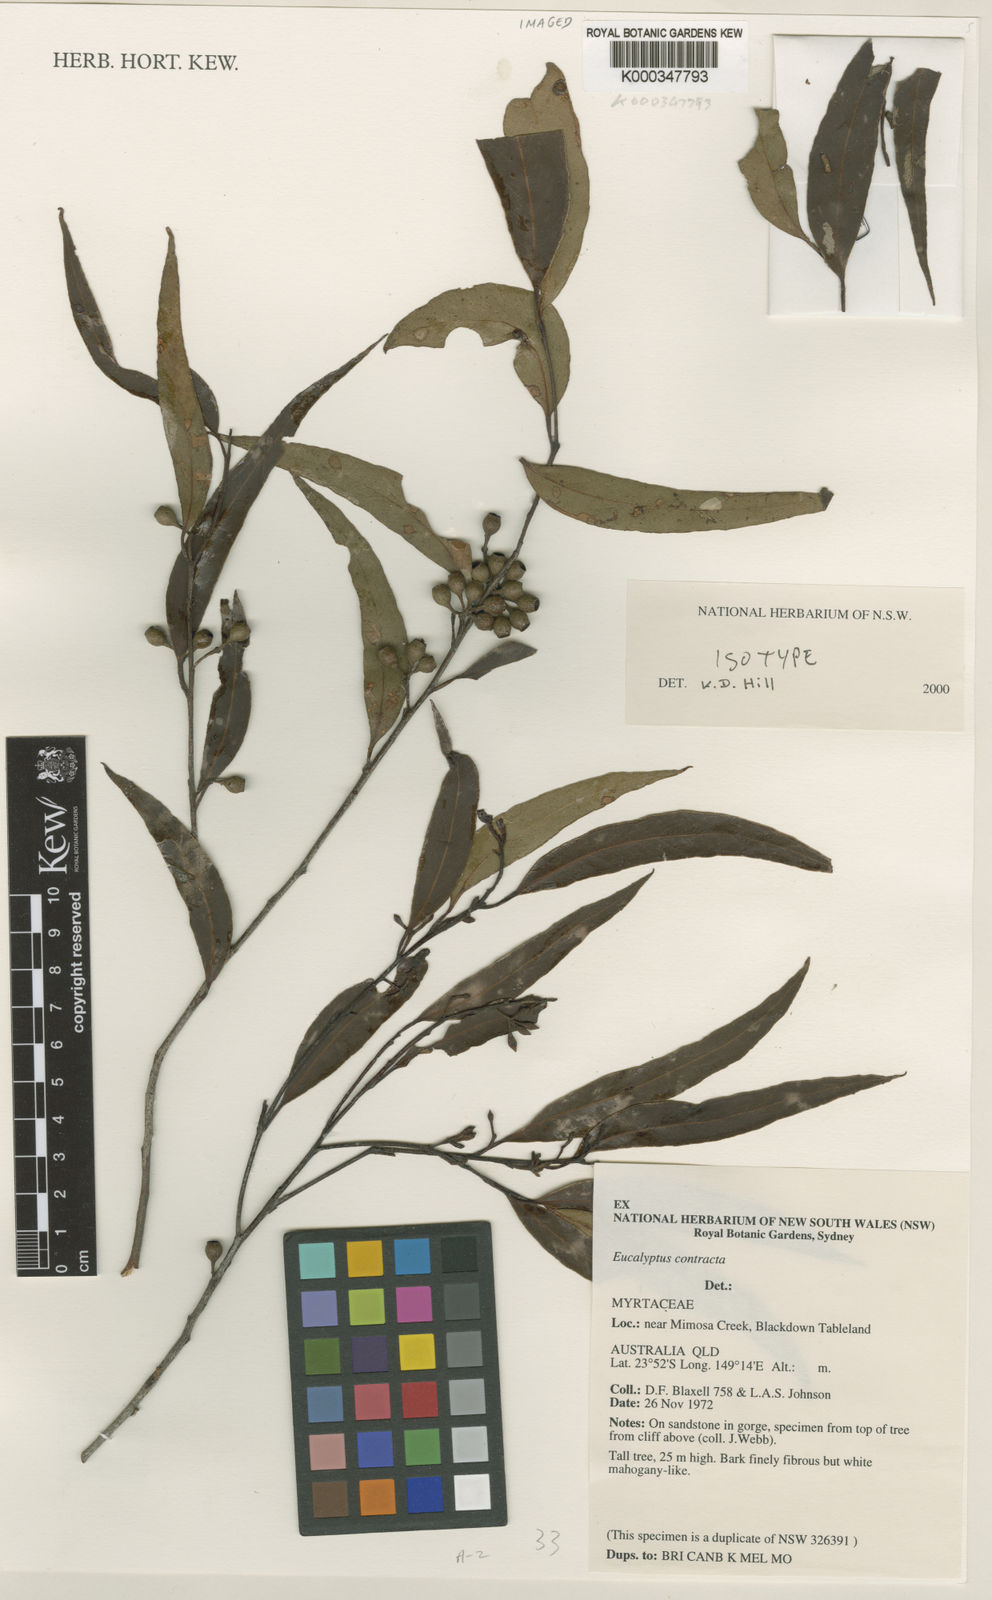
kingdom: Plantae
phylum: Tracheophyta
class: Magnoliopsida
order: Myrtales
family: Myrtaceae
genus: Eucalyptus
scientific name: Eucalyptus contracta
